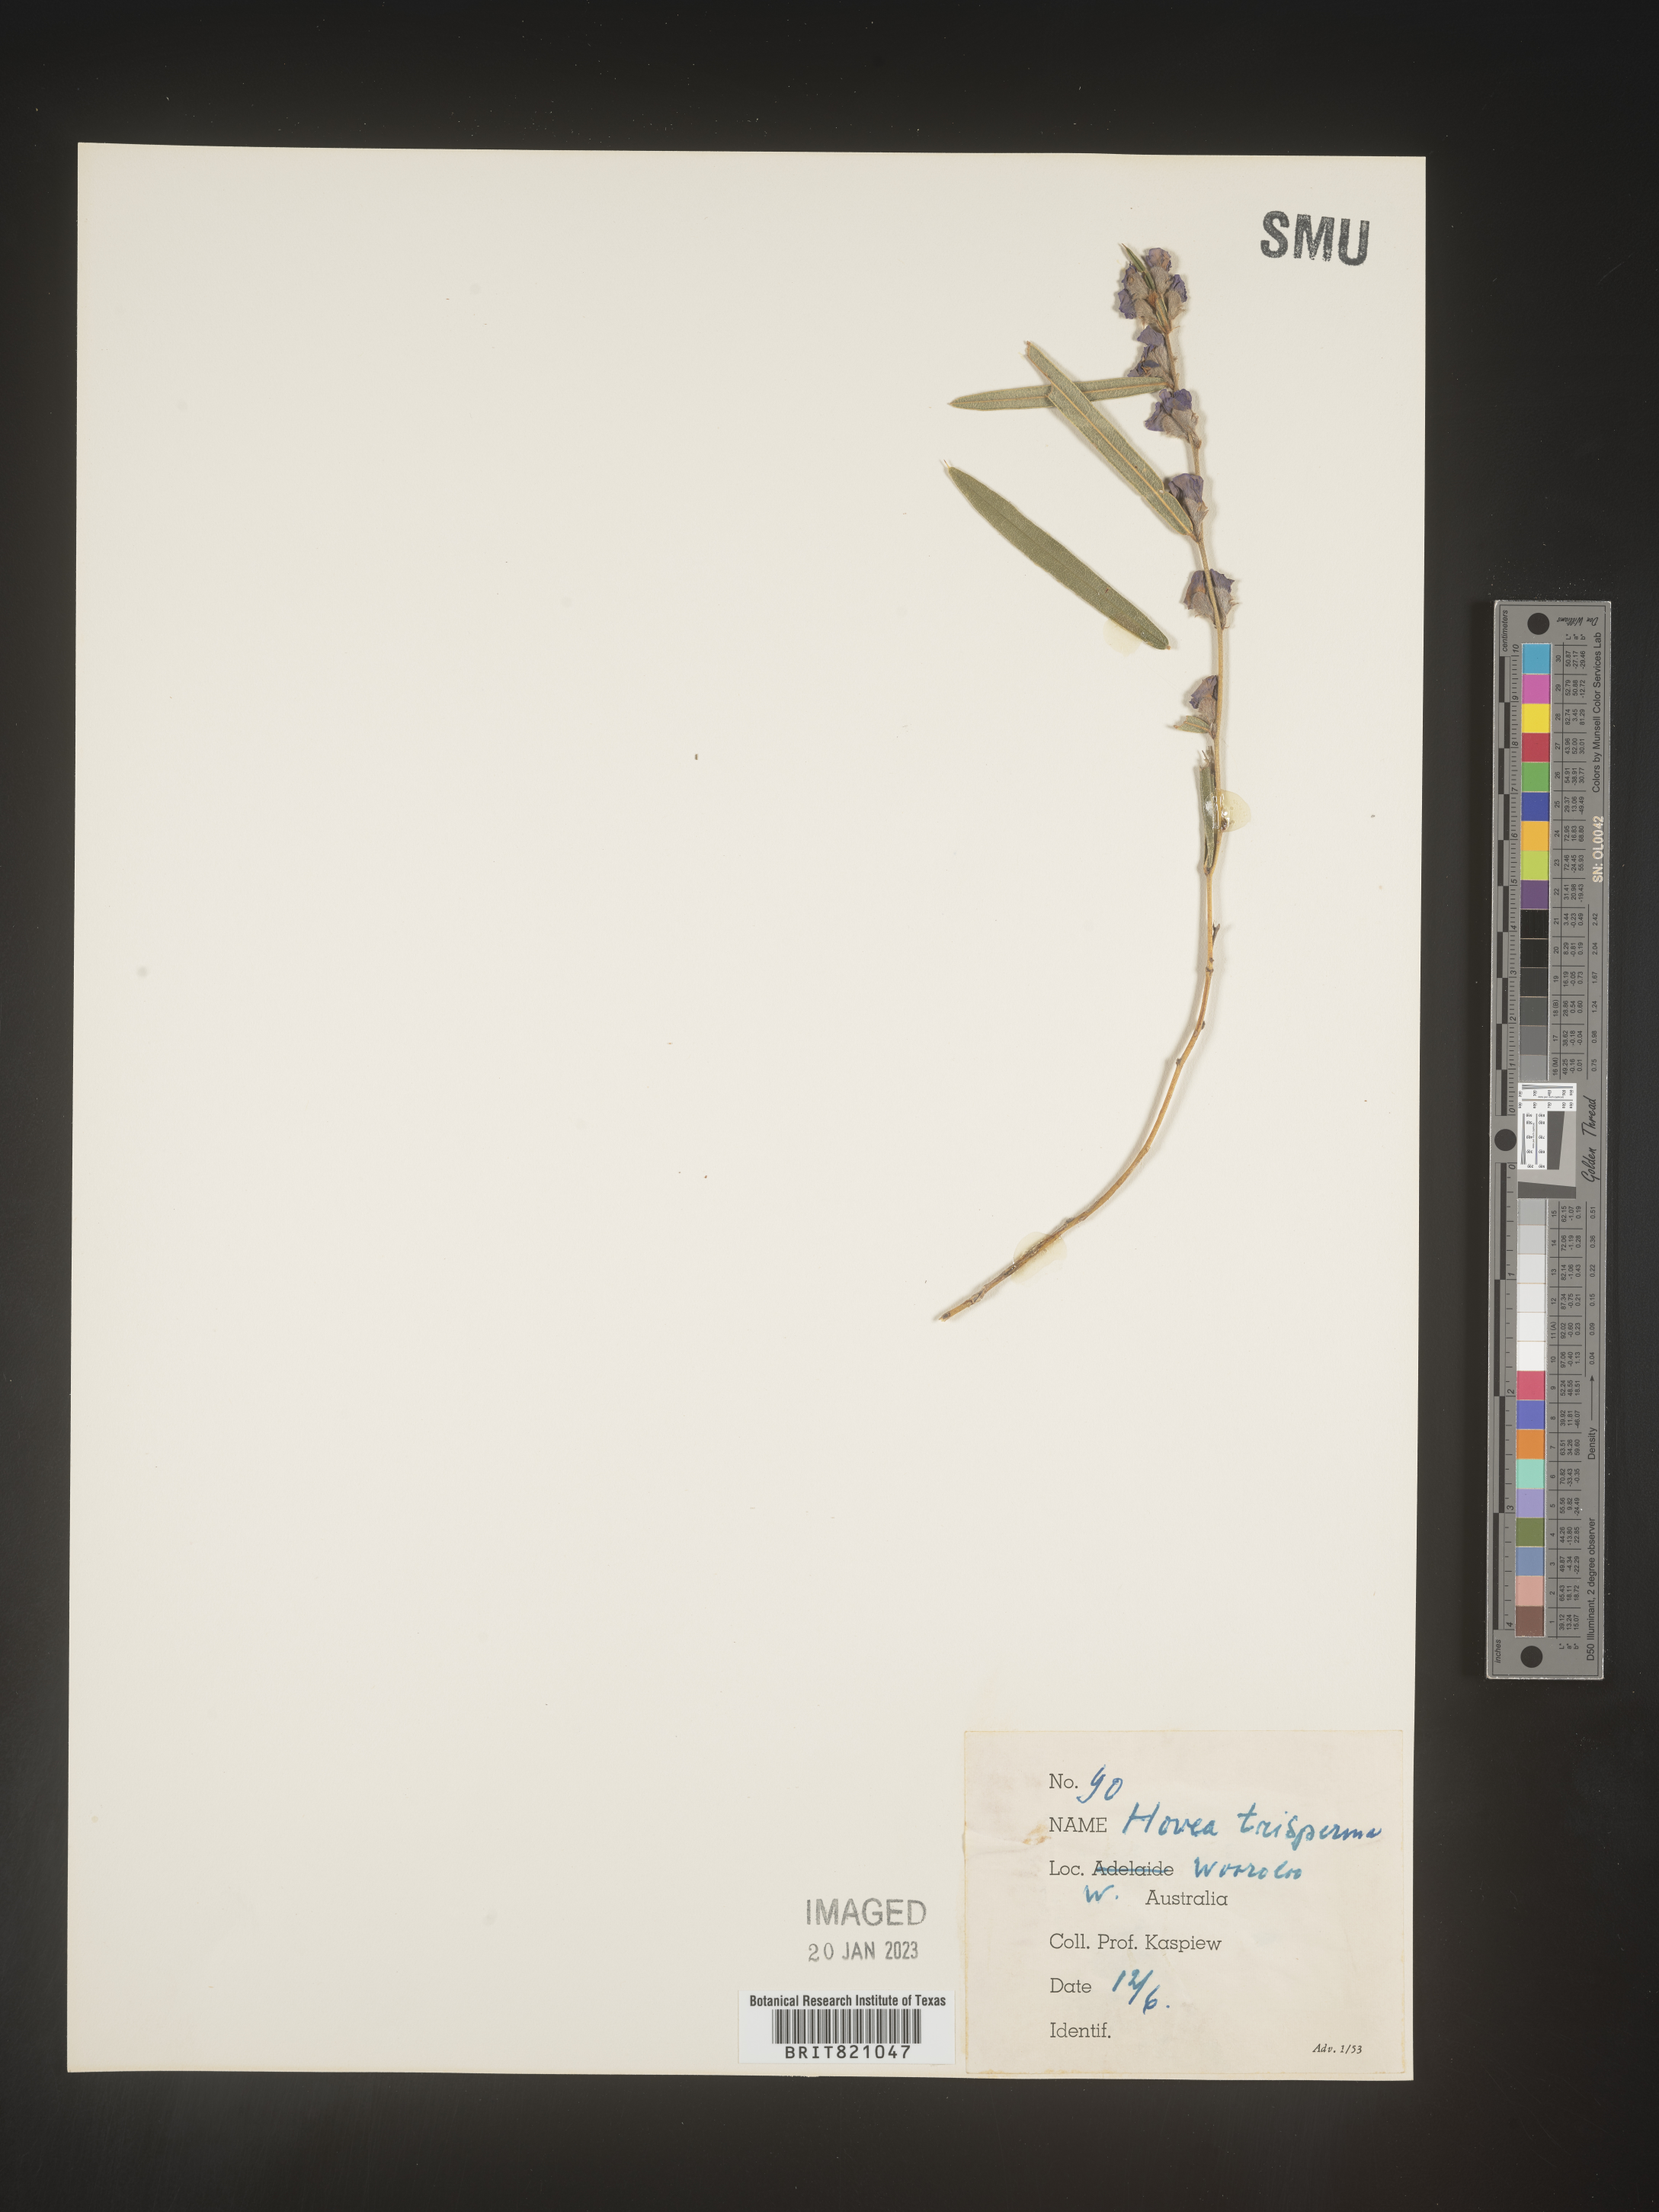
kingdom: Plantae
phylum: Tracheophyta
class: Magnoliopsida
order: Fabales
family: Fabaceae
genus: Hovea
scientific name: Hovea
